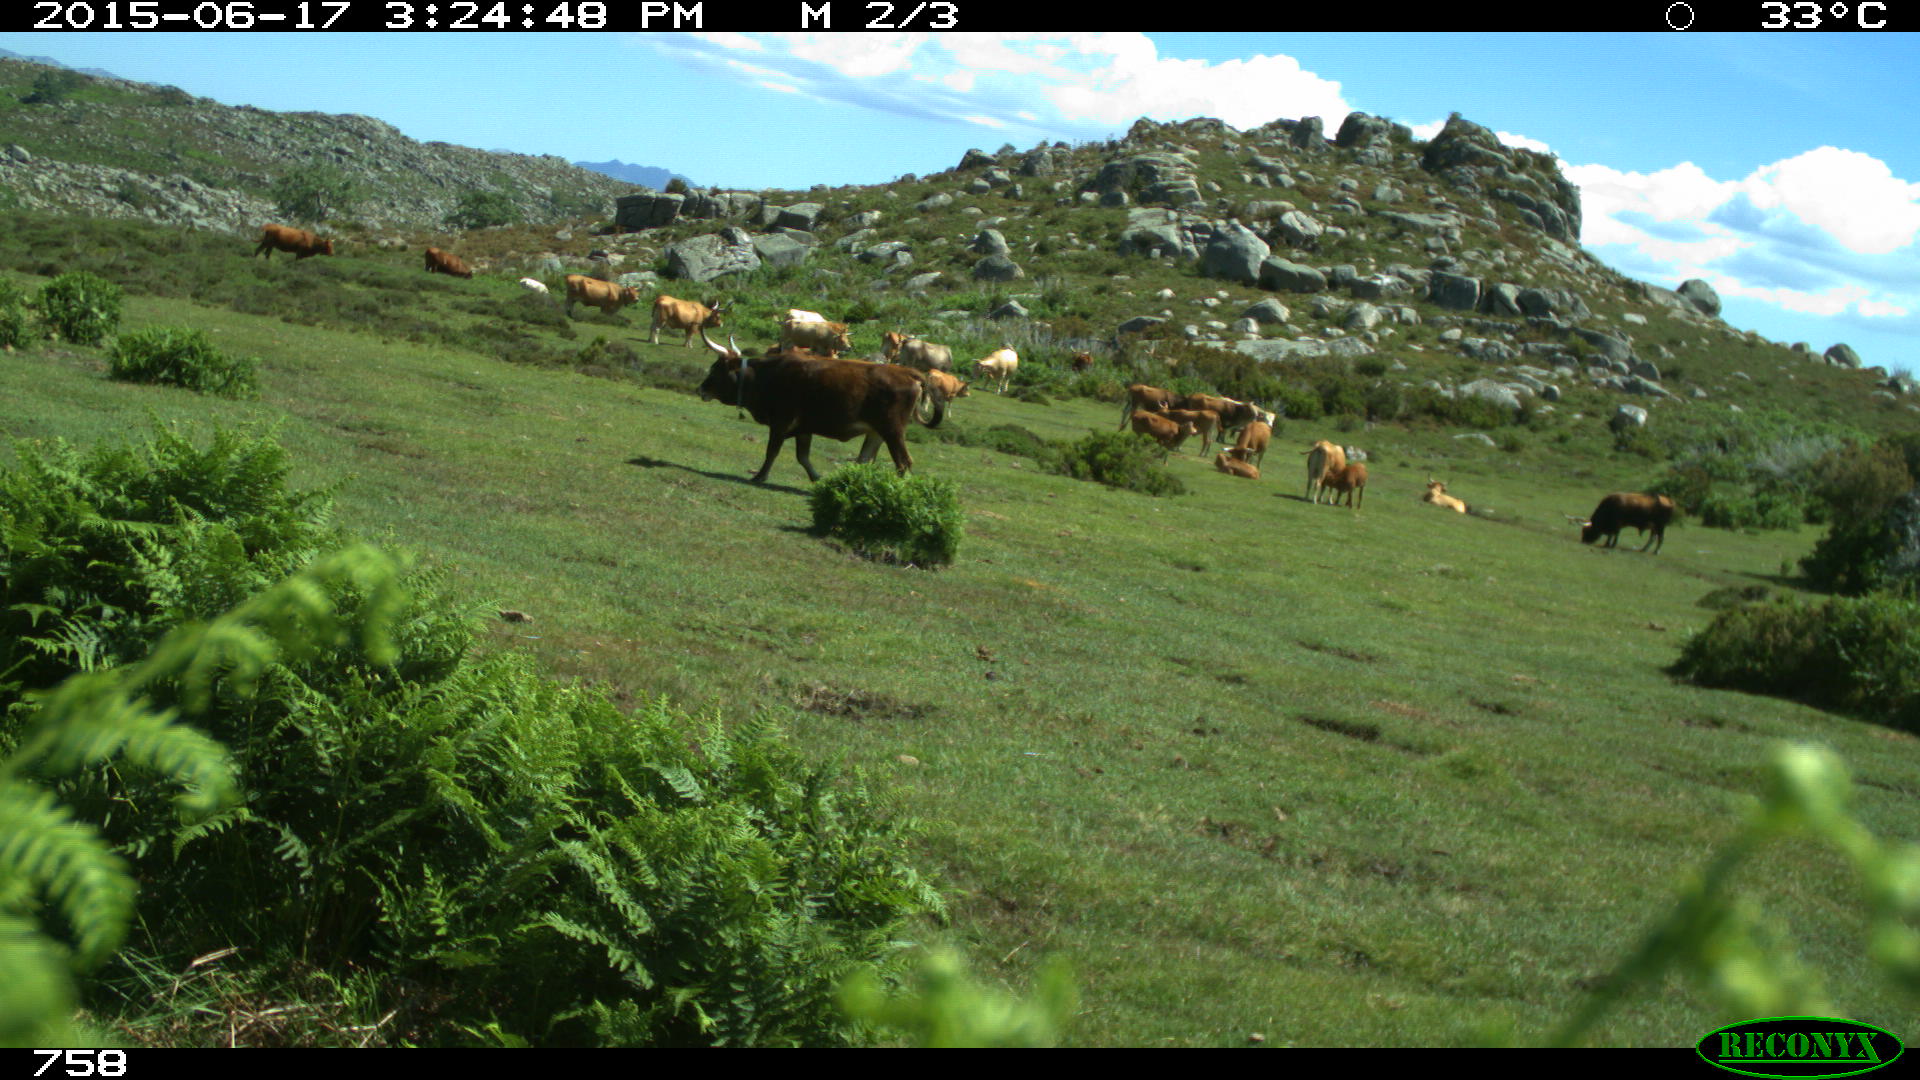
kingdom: Animalia
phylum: Chordata
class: Mammalia
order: Artiodactyla
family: Bovidae
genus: Bos
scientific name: Bos taurus
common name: Domesticated cattle
